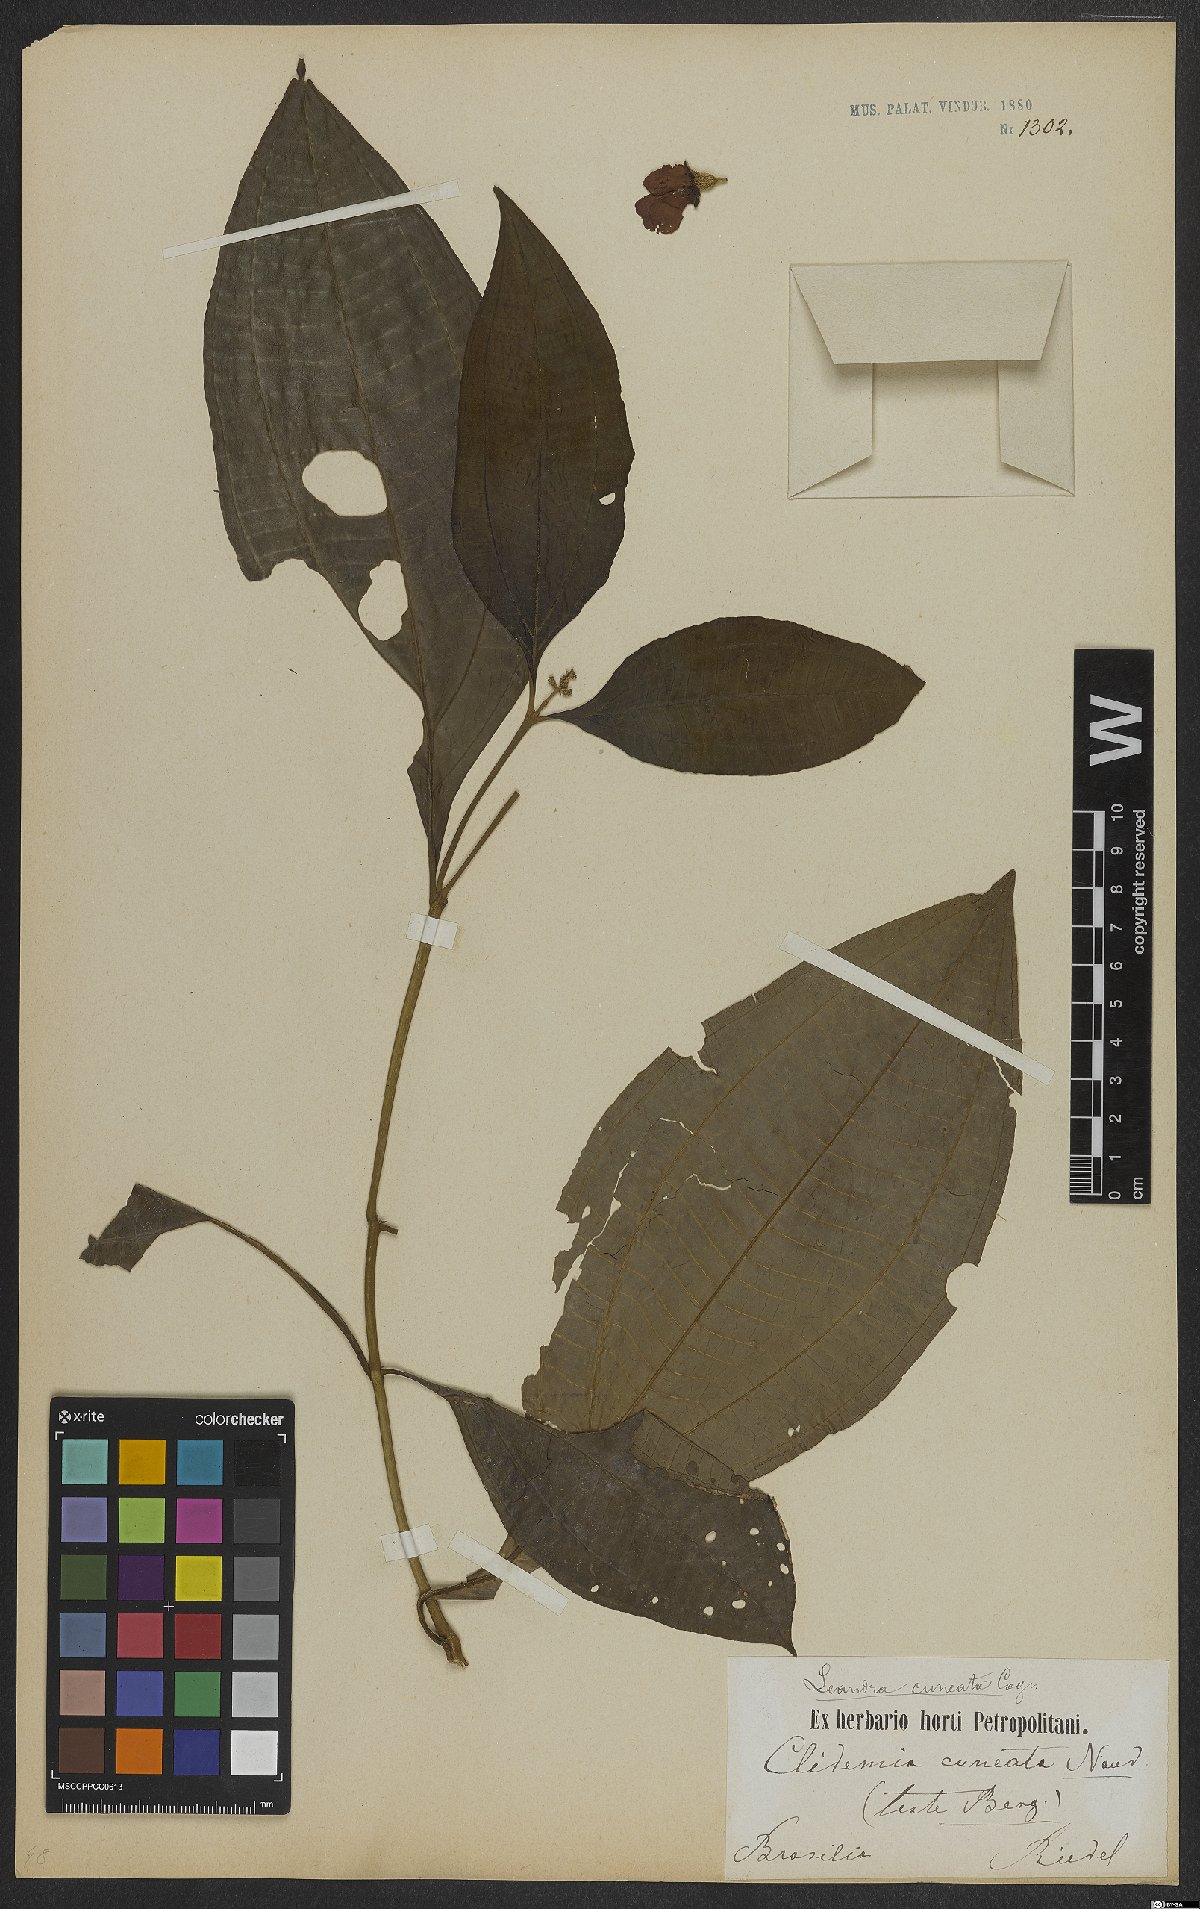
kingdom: Plantae
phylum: Tracheophyta
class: Magnoliopsida
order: Myrtales
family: Melastomataceae
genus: Miconia
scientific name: Miconia cuneatissima
